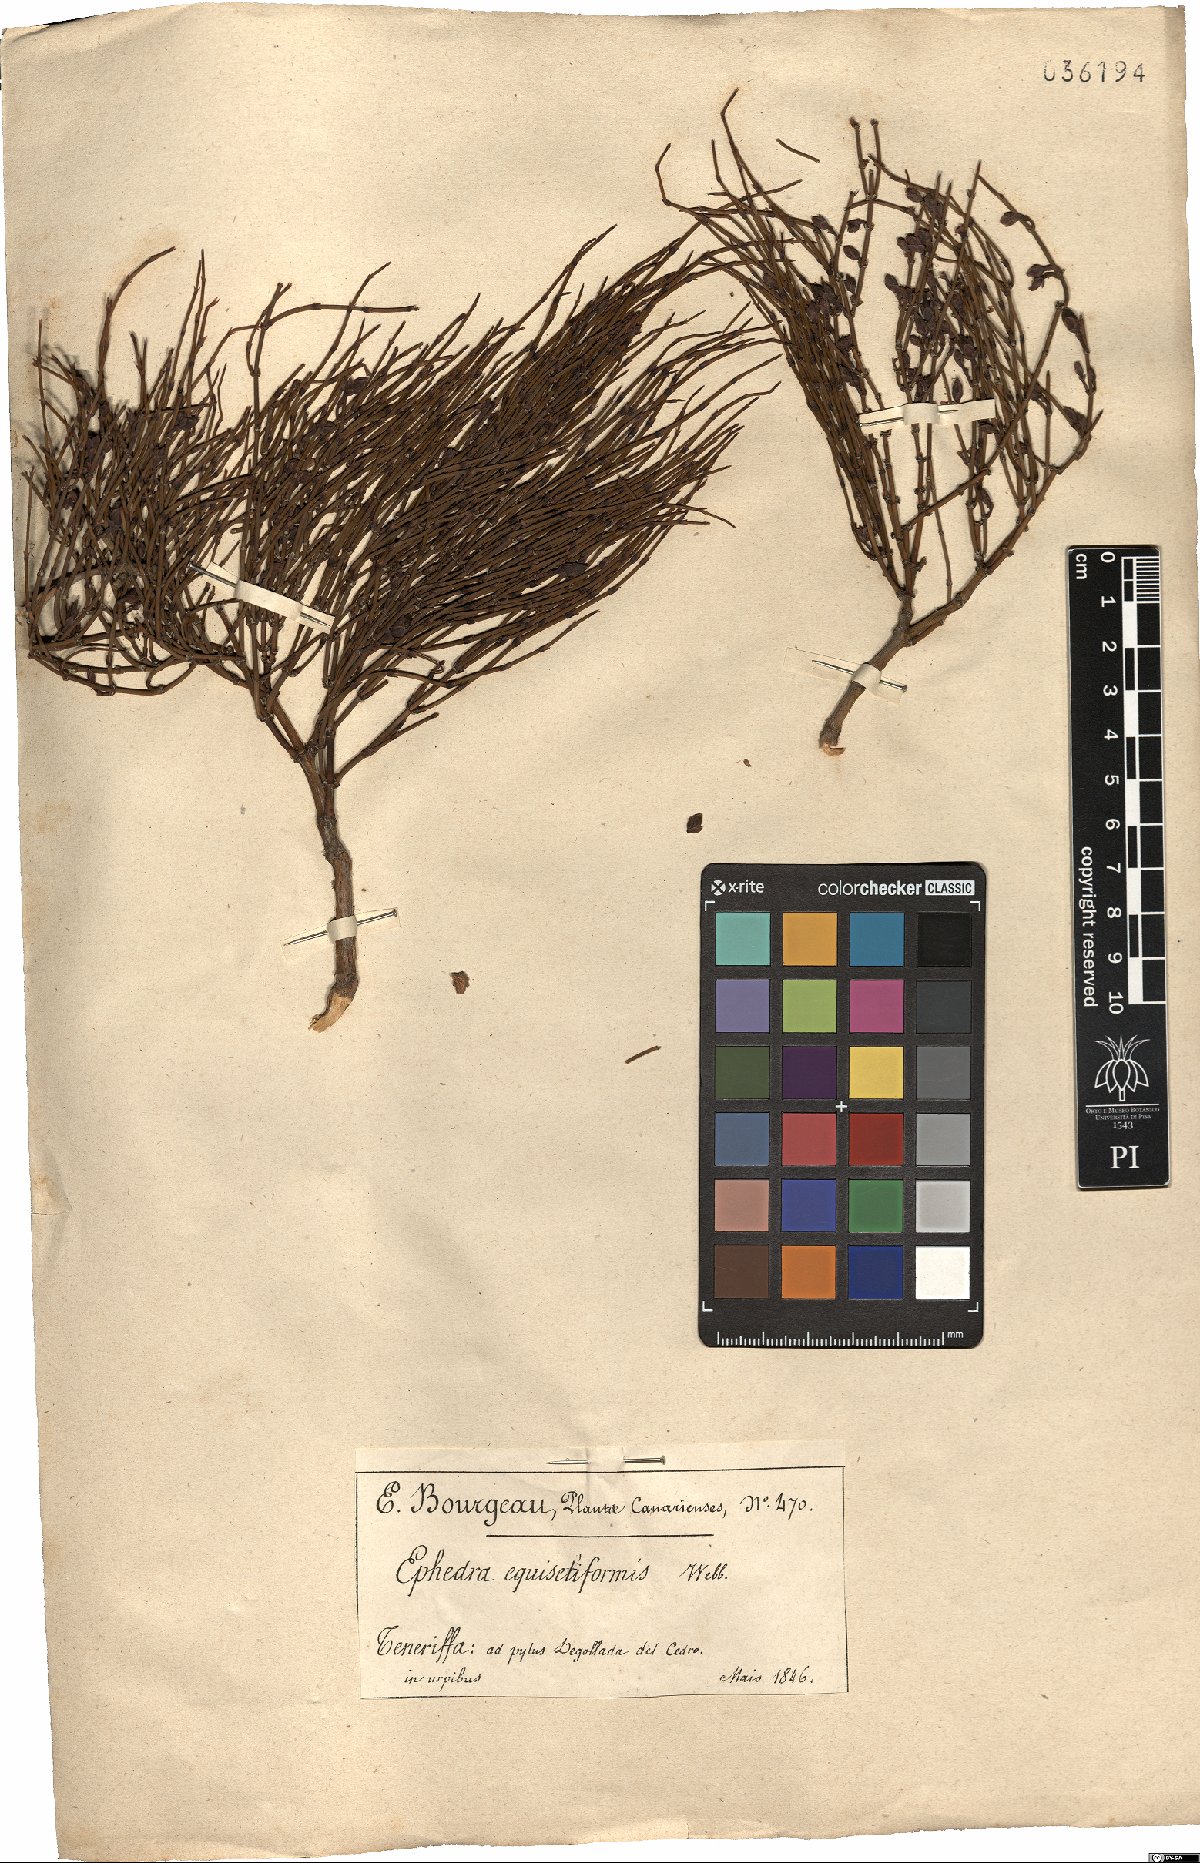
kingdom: Plantae
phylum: Tracheophyta
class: Gnetopsida
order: Ephedrales
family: Ephedraceae
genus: Ephedra
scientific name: Ephedra nebrodensis
